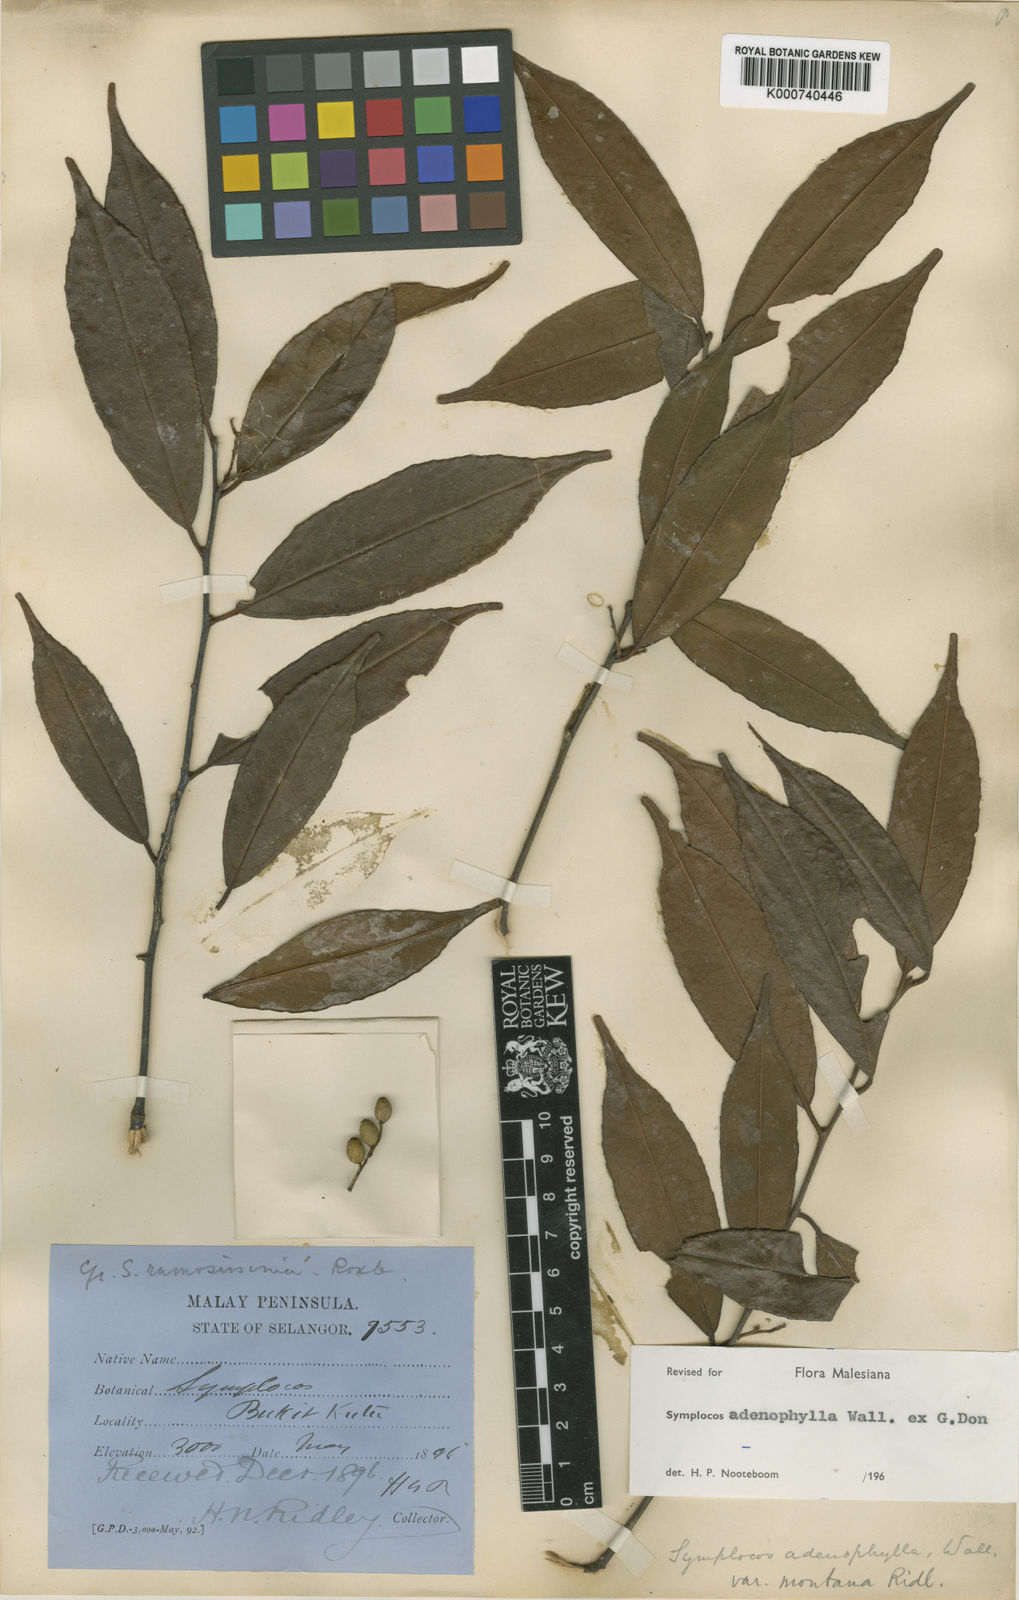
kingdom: Plantae
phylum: Tracheophyta
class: Magnoliopsida
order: Ericales
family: Symplocaceae
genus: Symplocos
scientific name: Symplocos
